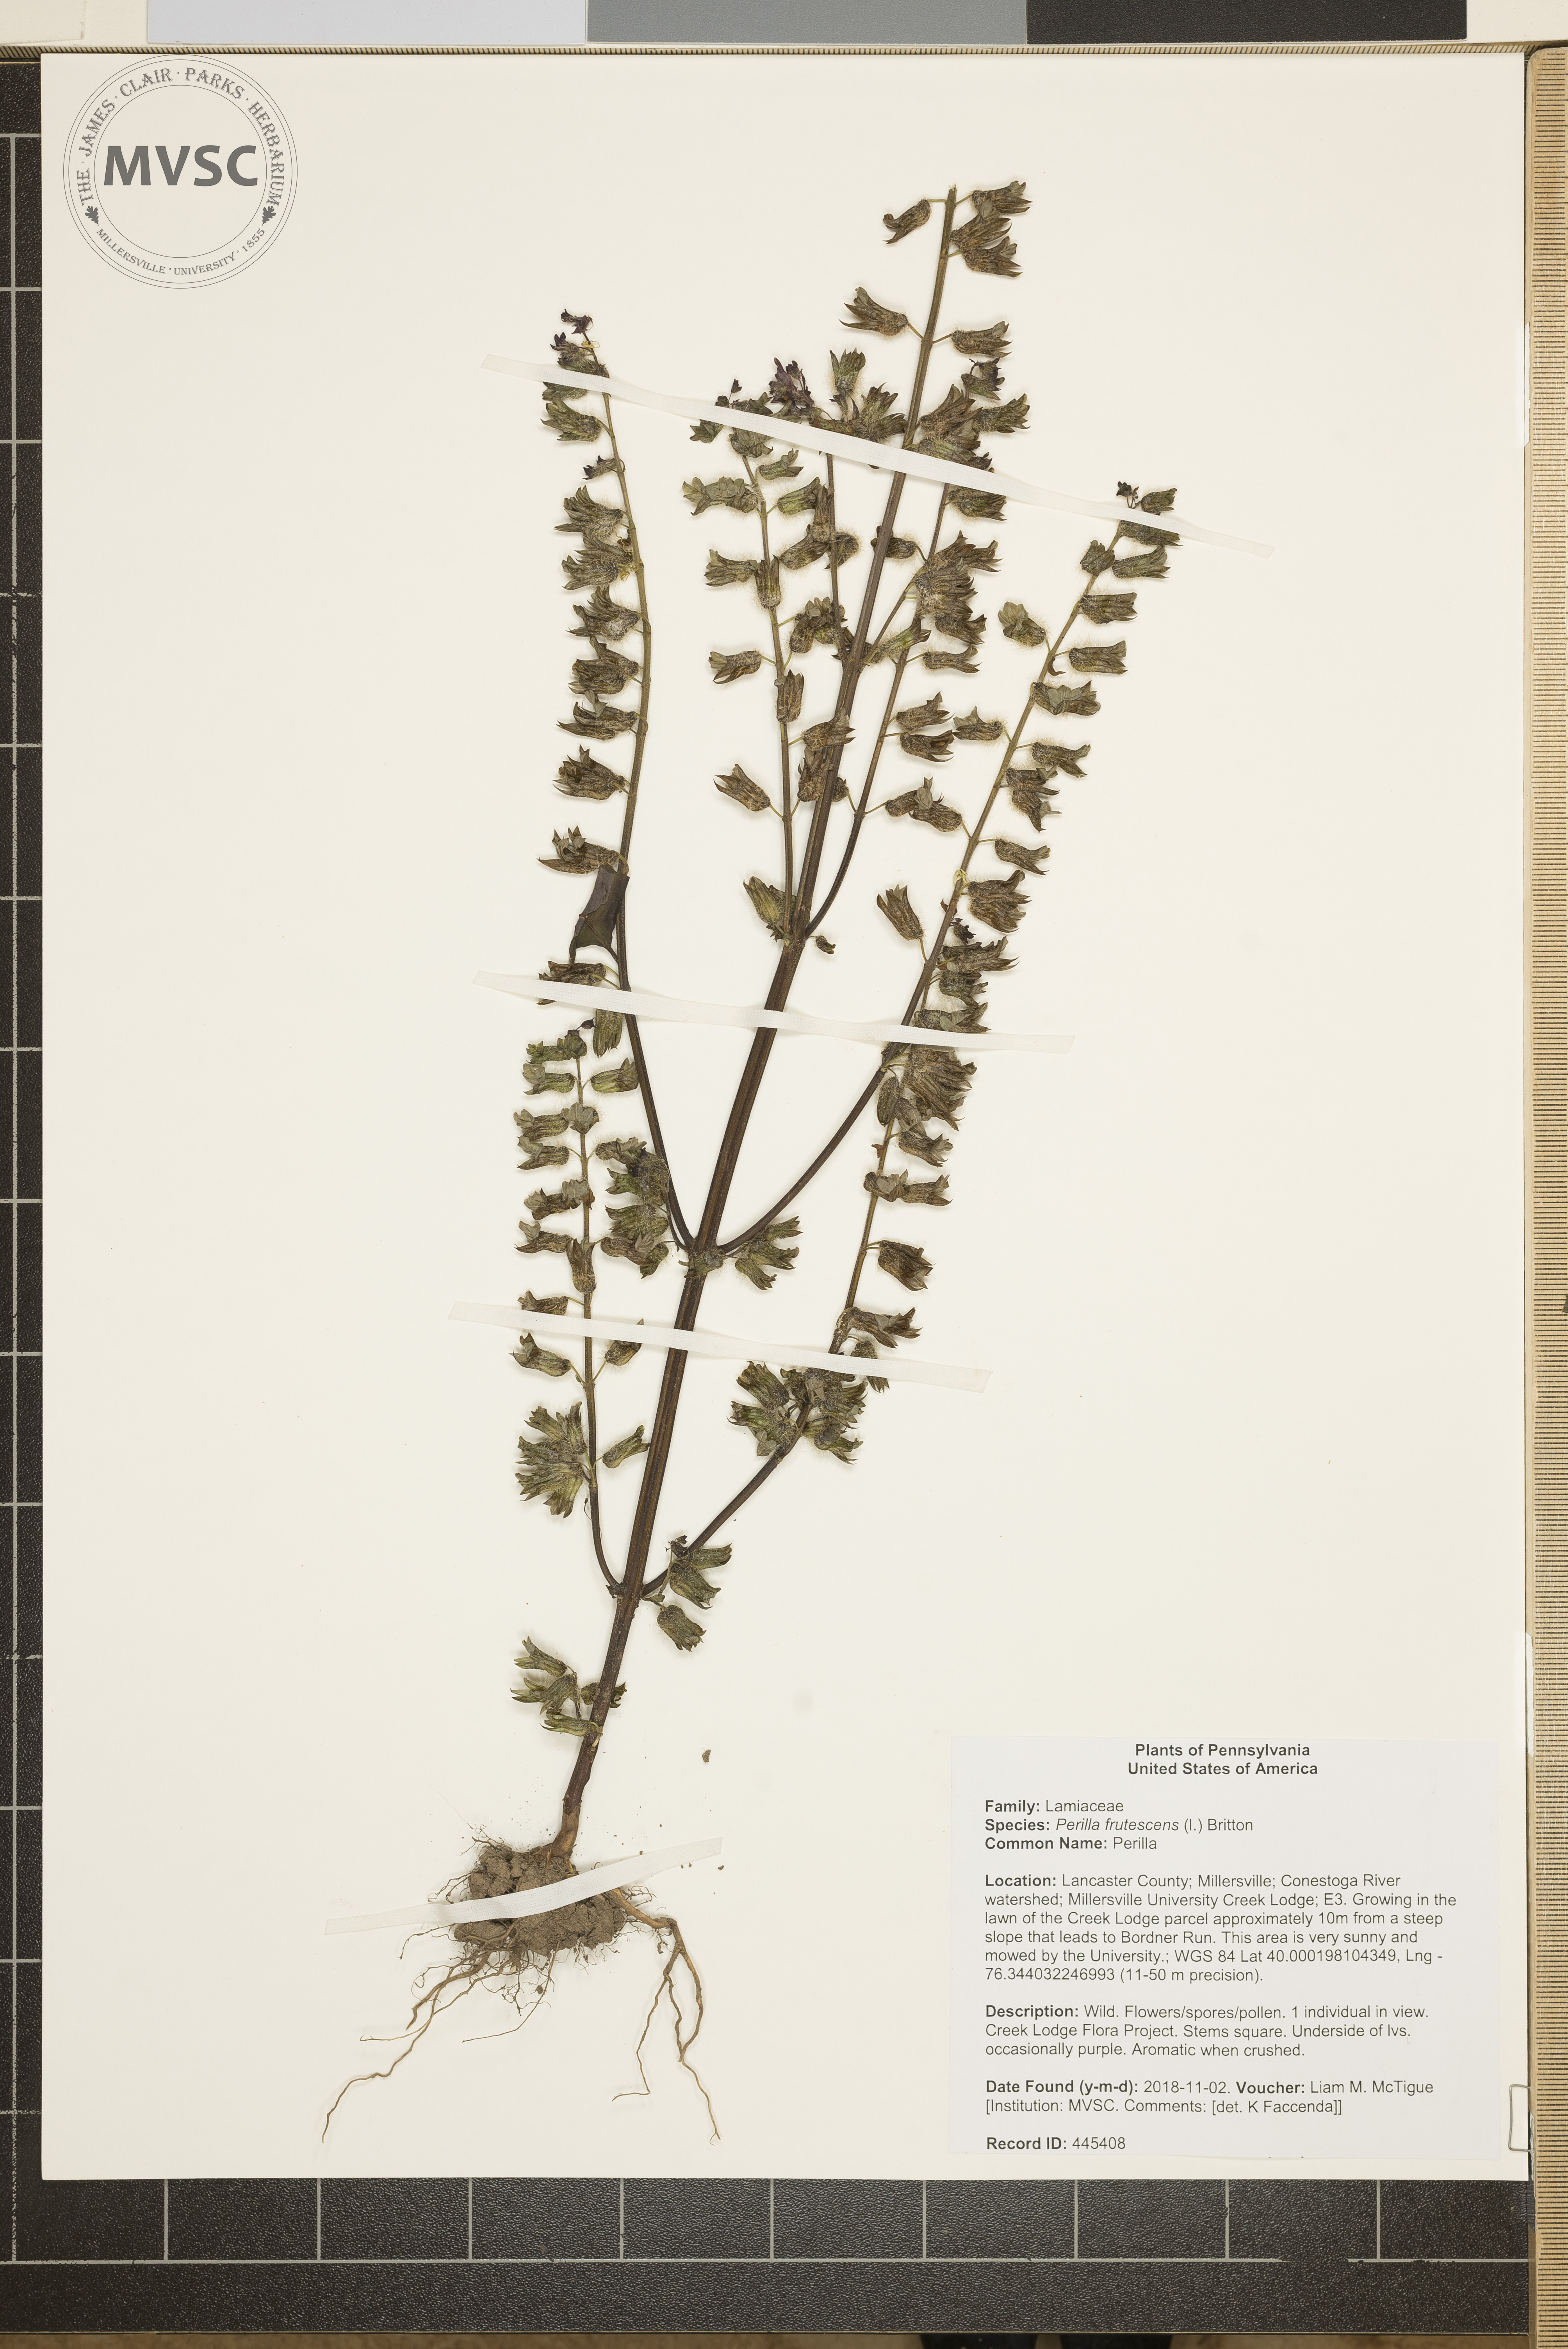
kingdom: Plantae
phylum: Tracheophyta
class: Magnoliopsida
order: Lamiales
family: Lamiaceae
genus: Perilla
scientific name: Perilla frutescens
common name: Perilla
